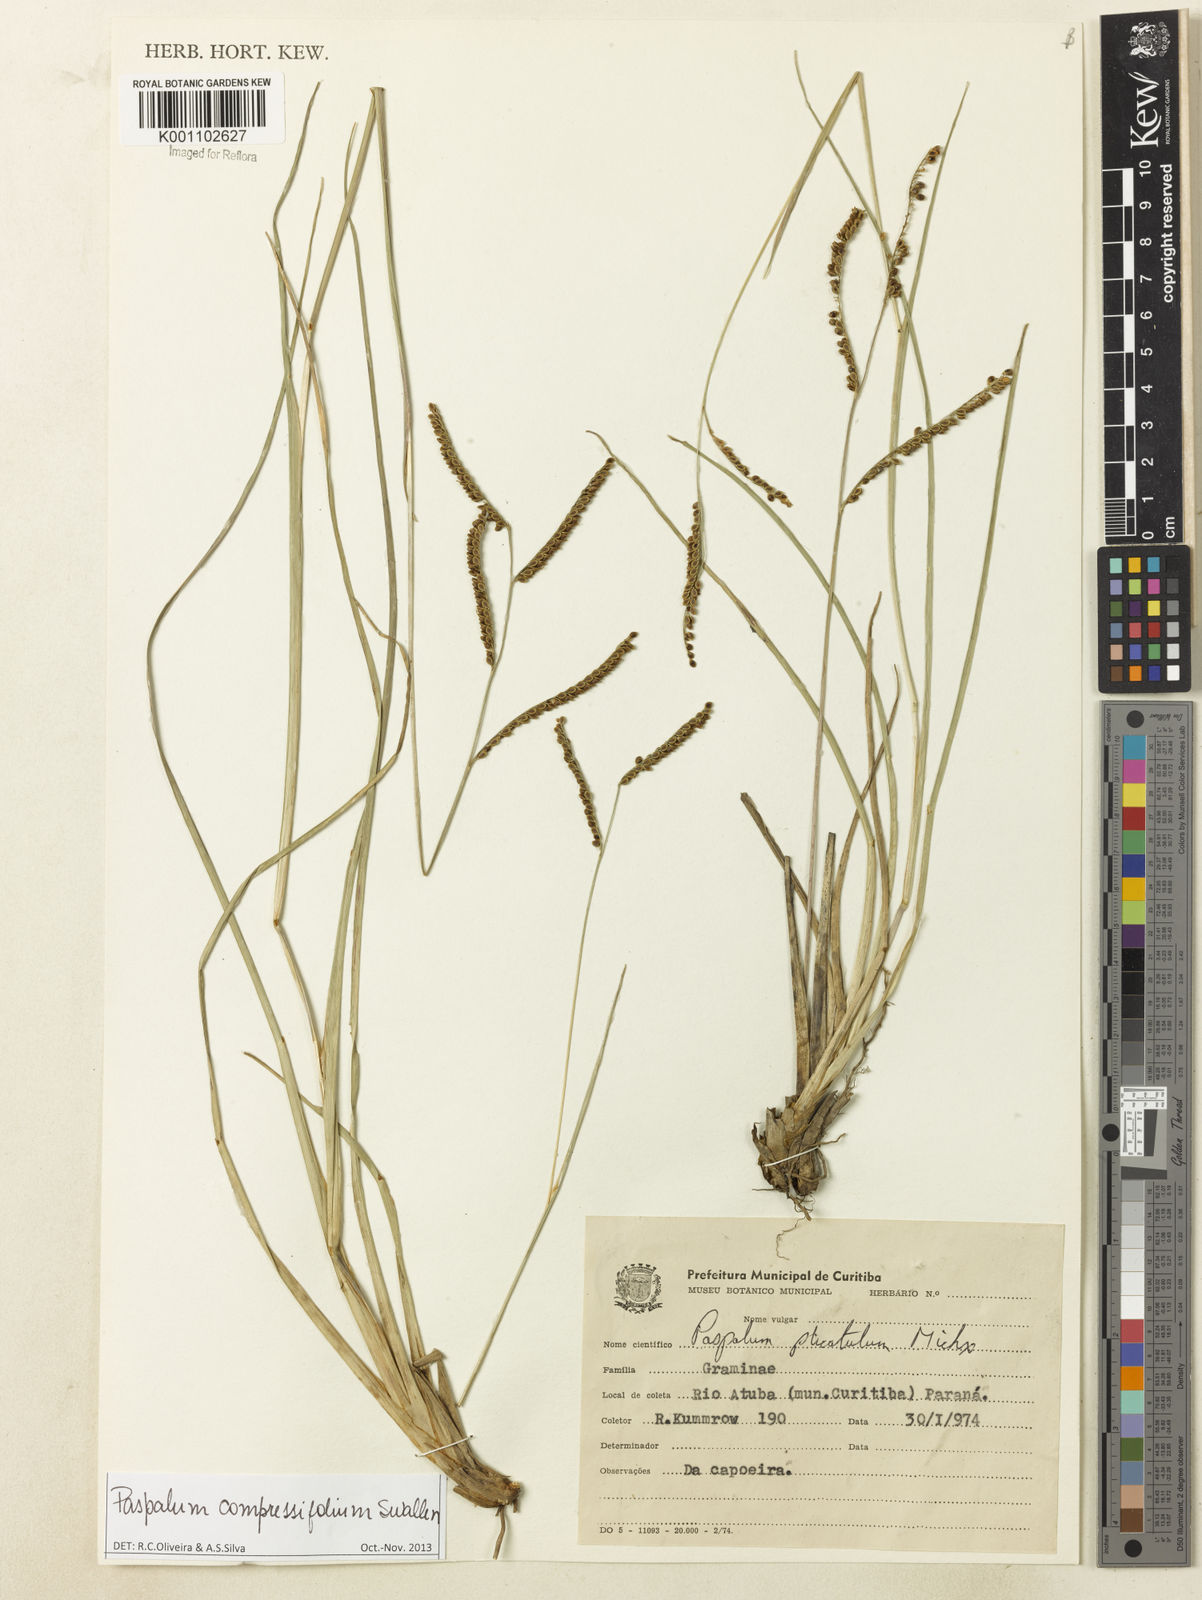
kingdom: Plantae
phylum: Tracheophyta
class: Liliopsida
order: Poales
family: Poaceae
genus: Paspalum
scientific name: Paspalum
